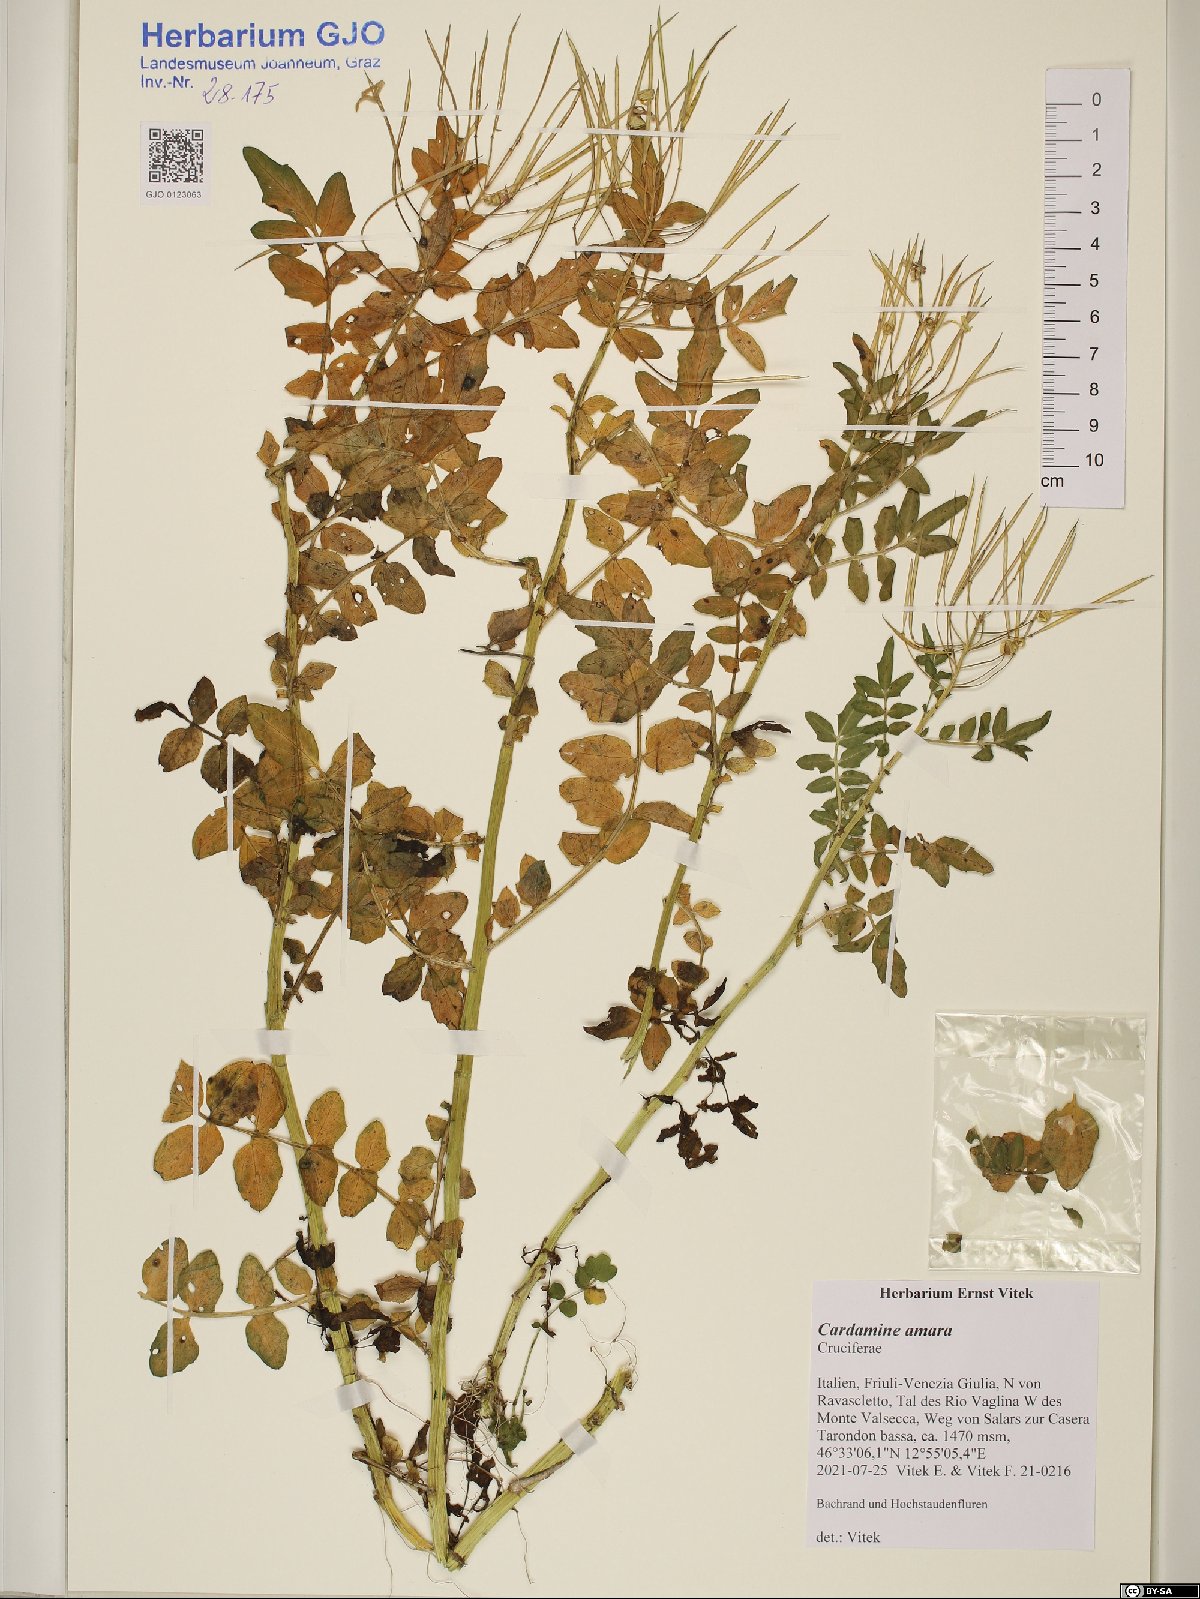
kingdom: Plantae
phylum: Tracheophyta
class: Magnoliopsida
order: Brassicales
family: Brassicaceae
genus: Cardamine
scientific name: Cardamine amara
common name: Large bitter-cress
